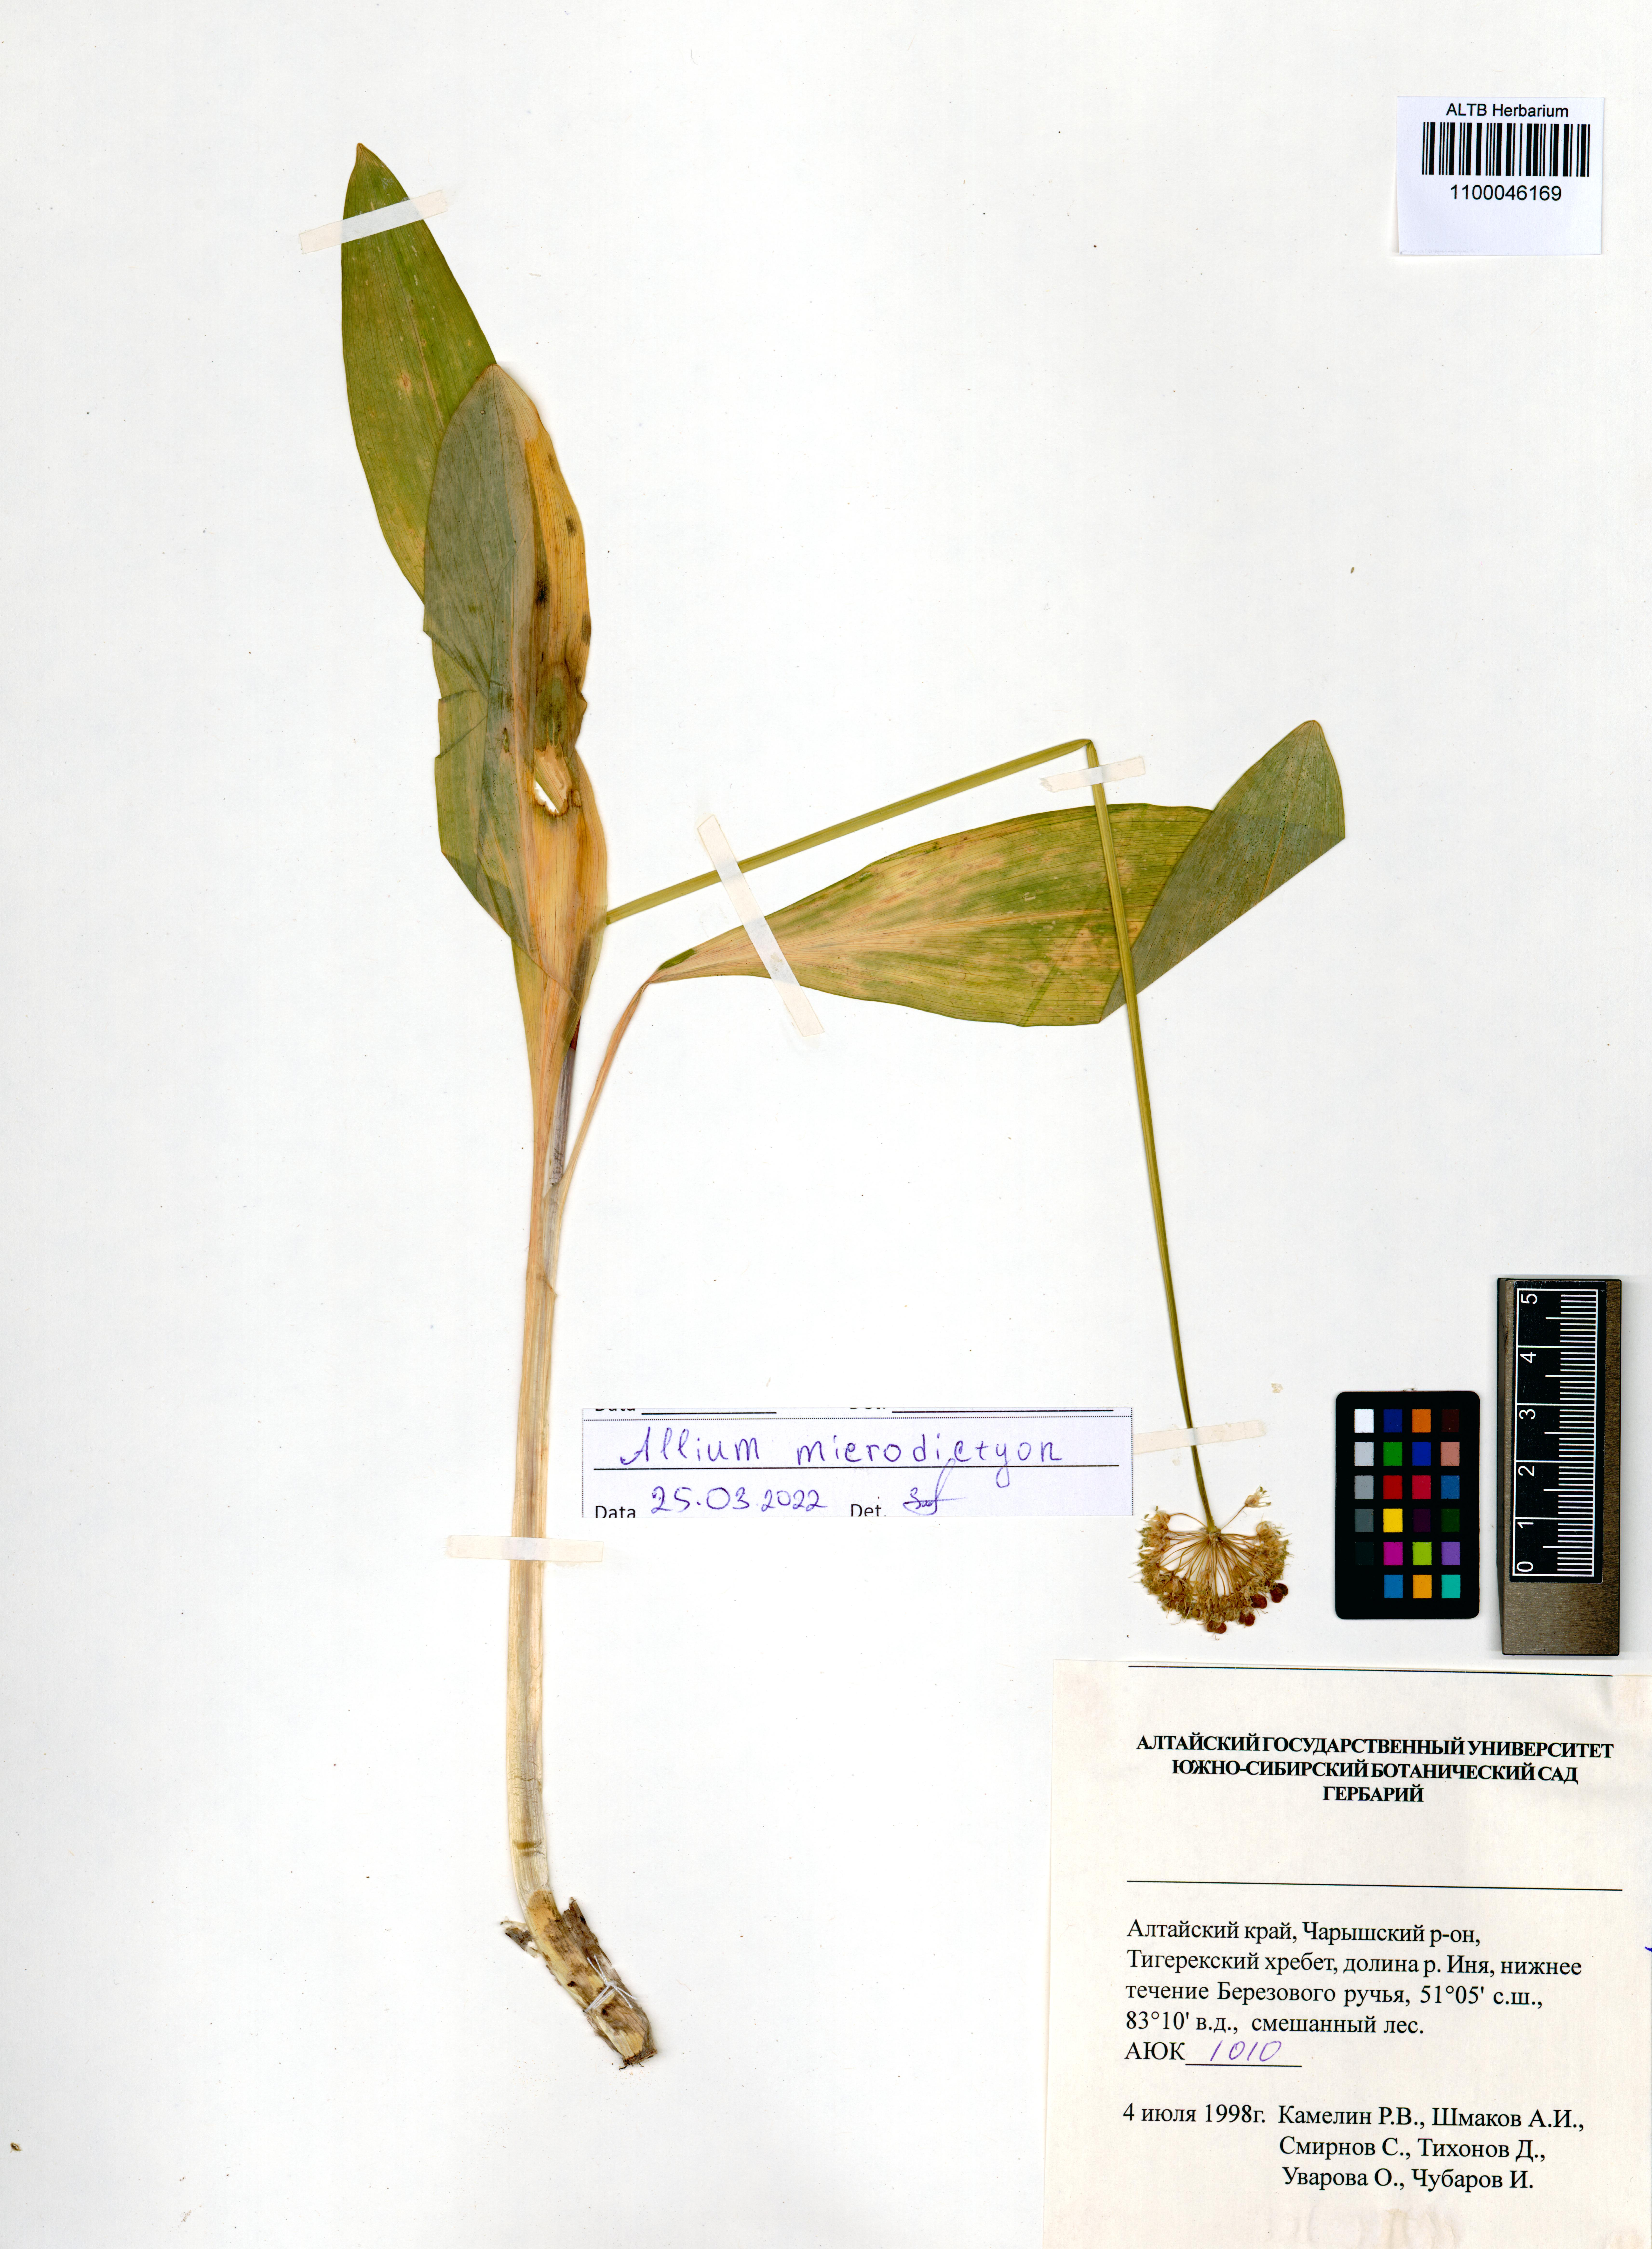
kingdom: Plantae
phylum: Tracheophyta
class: Liliopsida
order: Asparagales
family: Amaryllidaceae
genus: Allium
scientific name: Allium microdictyon
